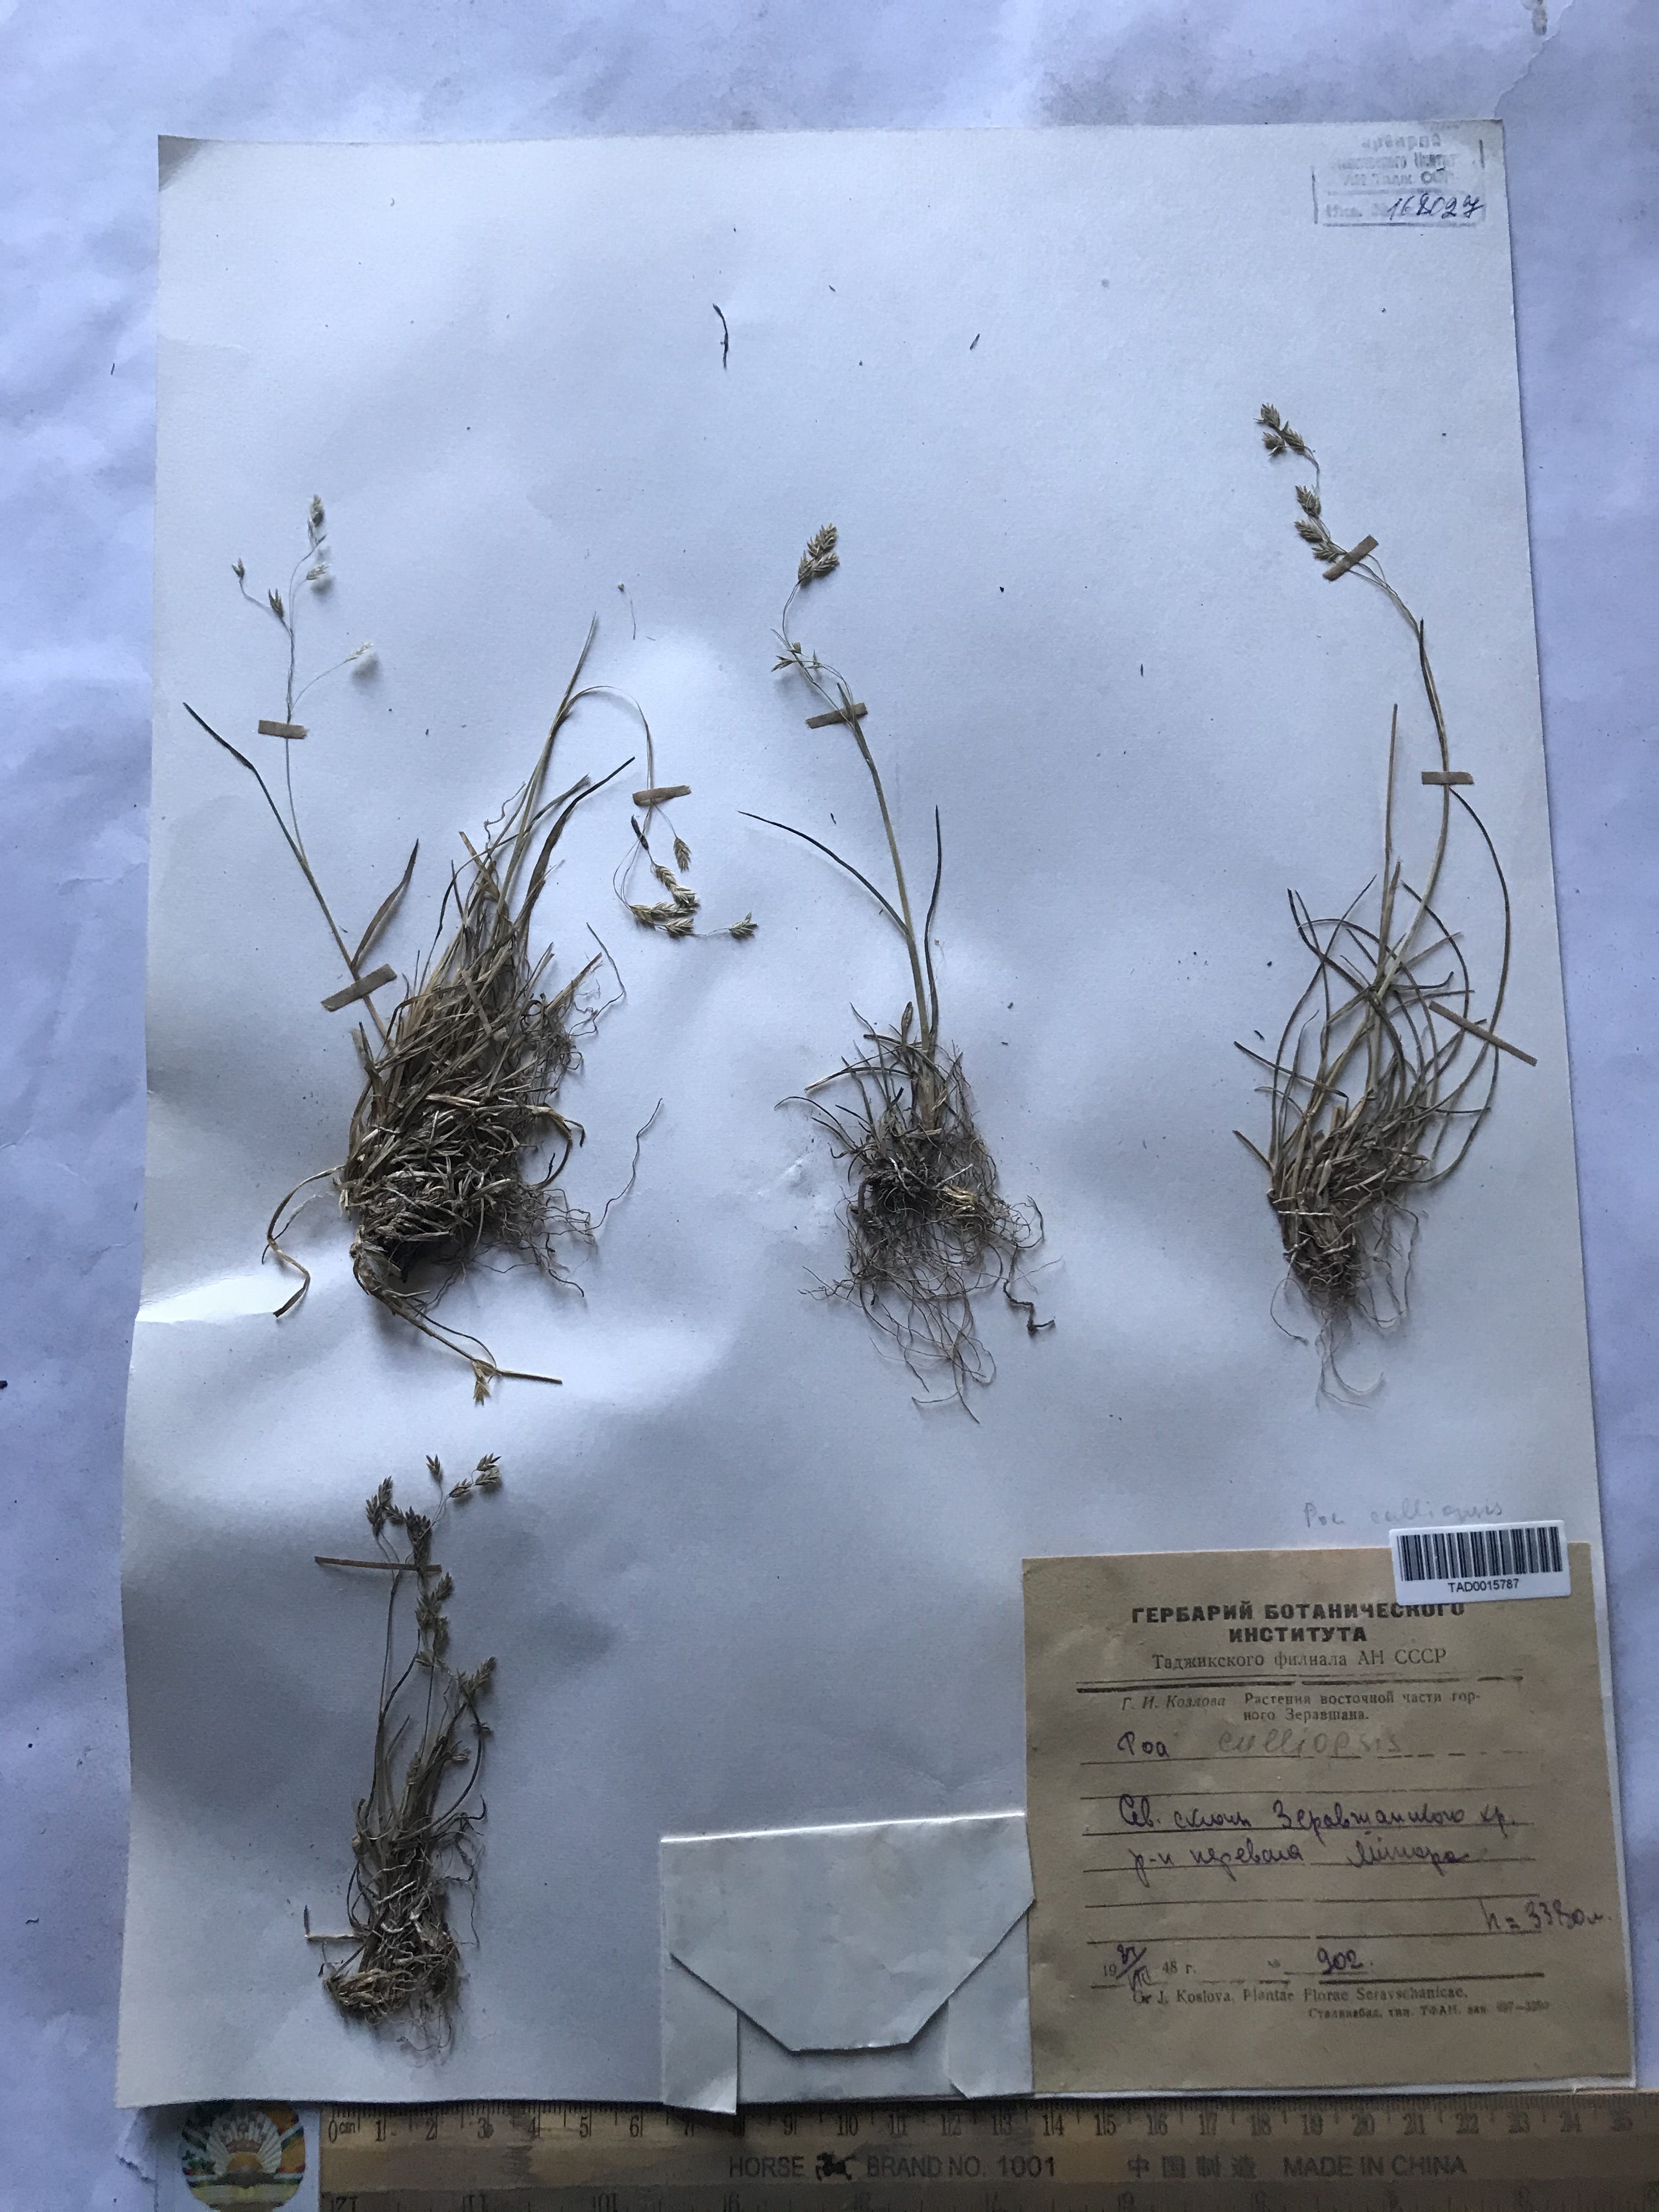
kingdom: Plantae
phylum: Tracheophyta
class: Liliopsida
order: Poales
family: Poaceae
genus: Poa
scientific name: Poa calliopsis
